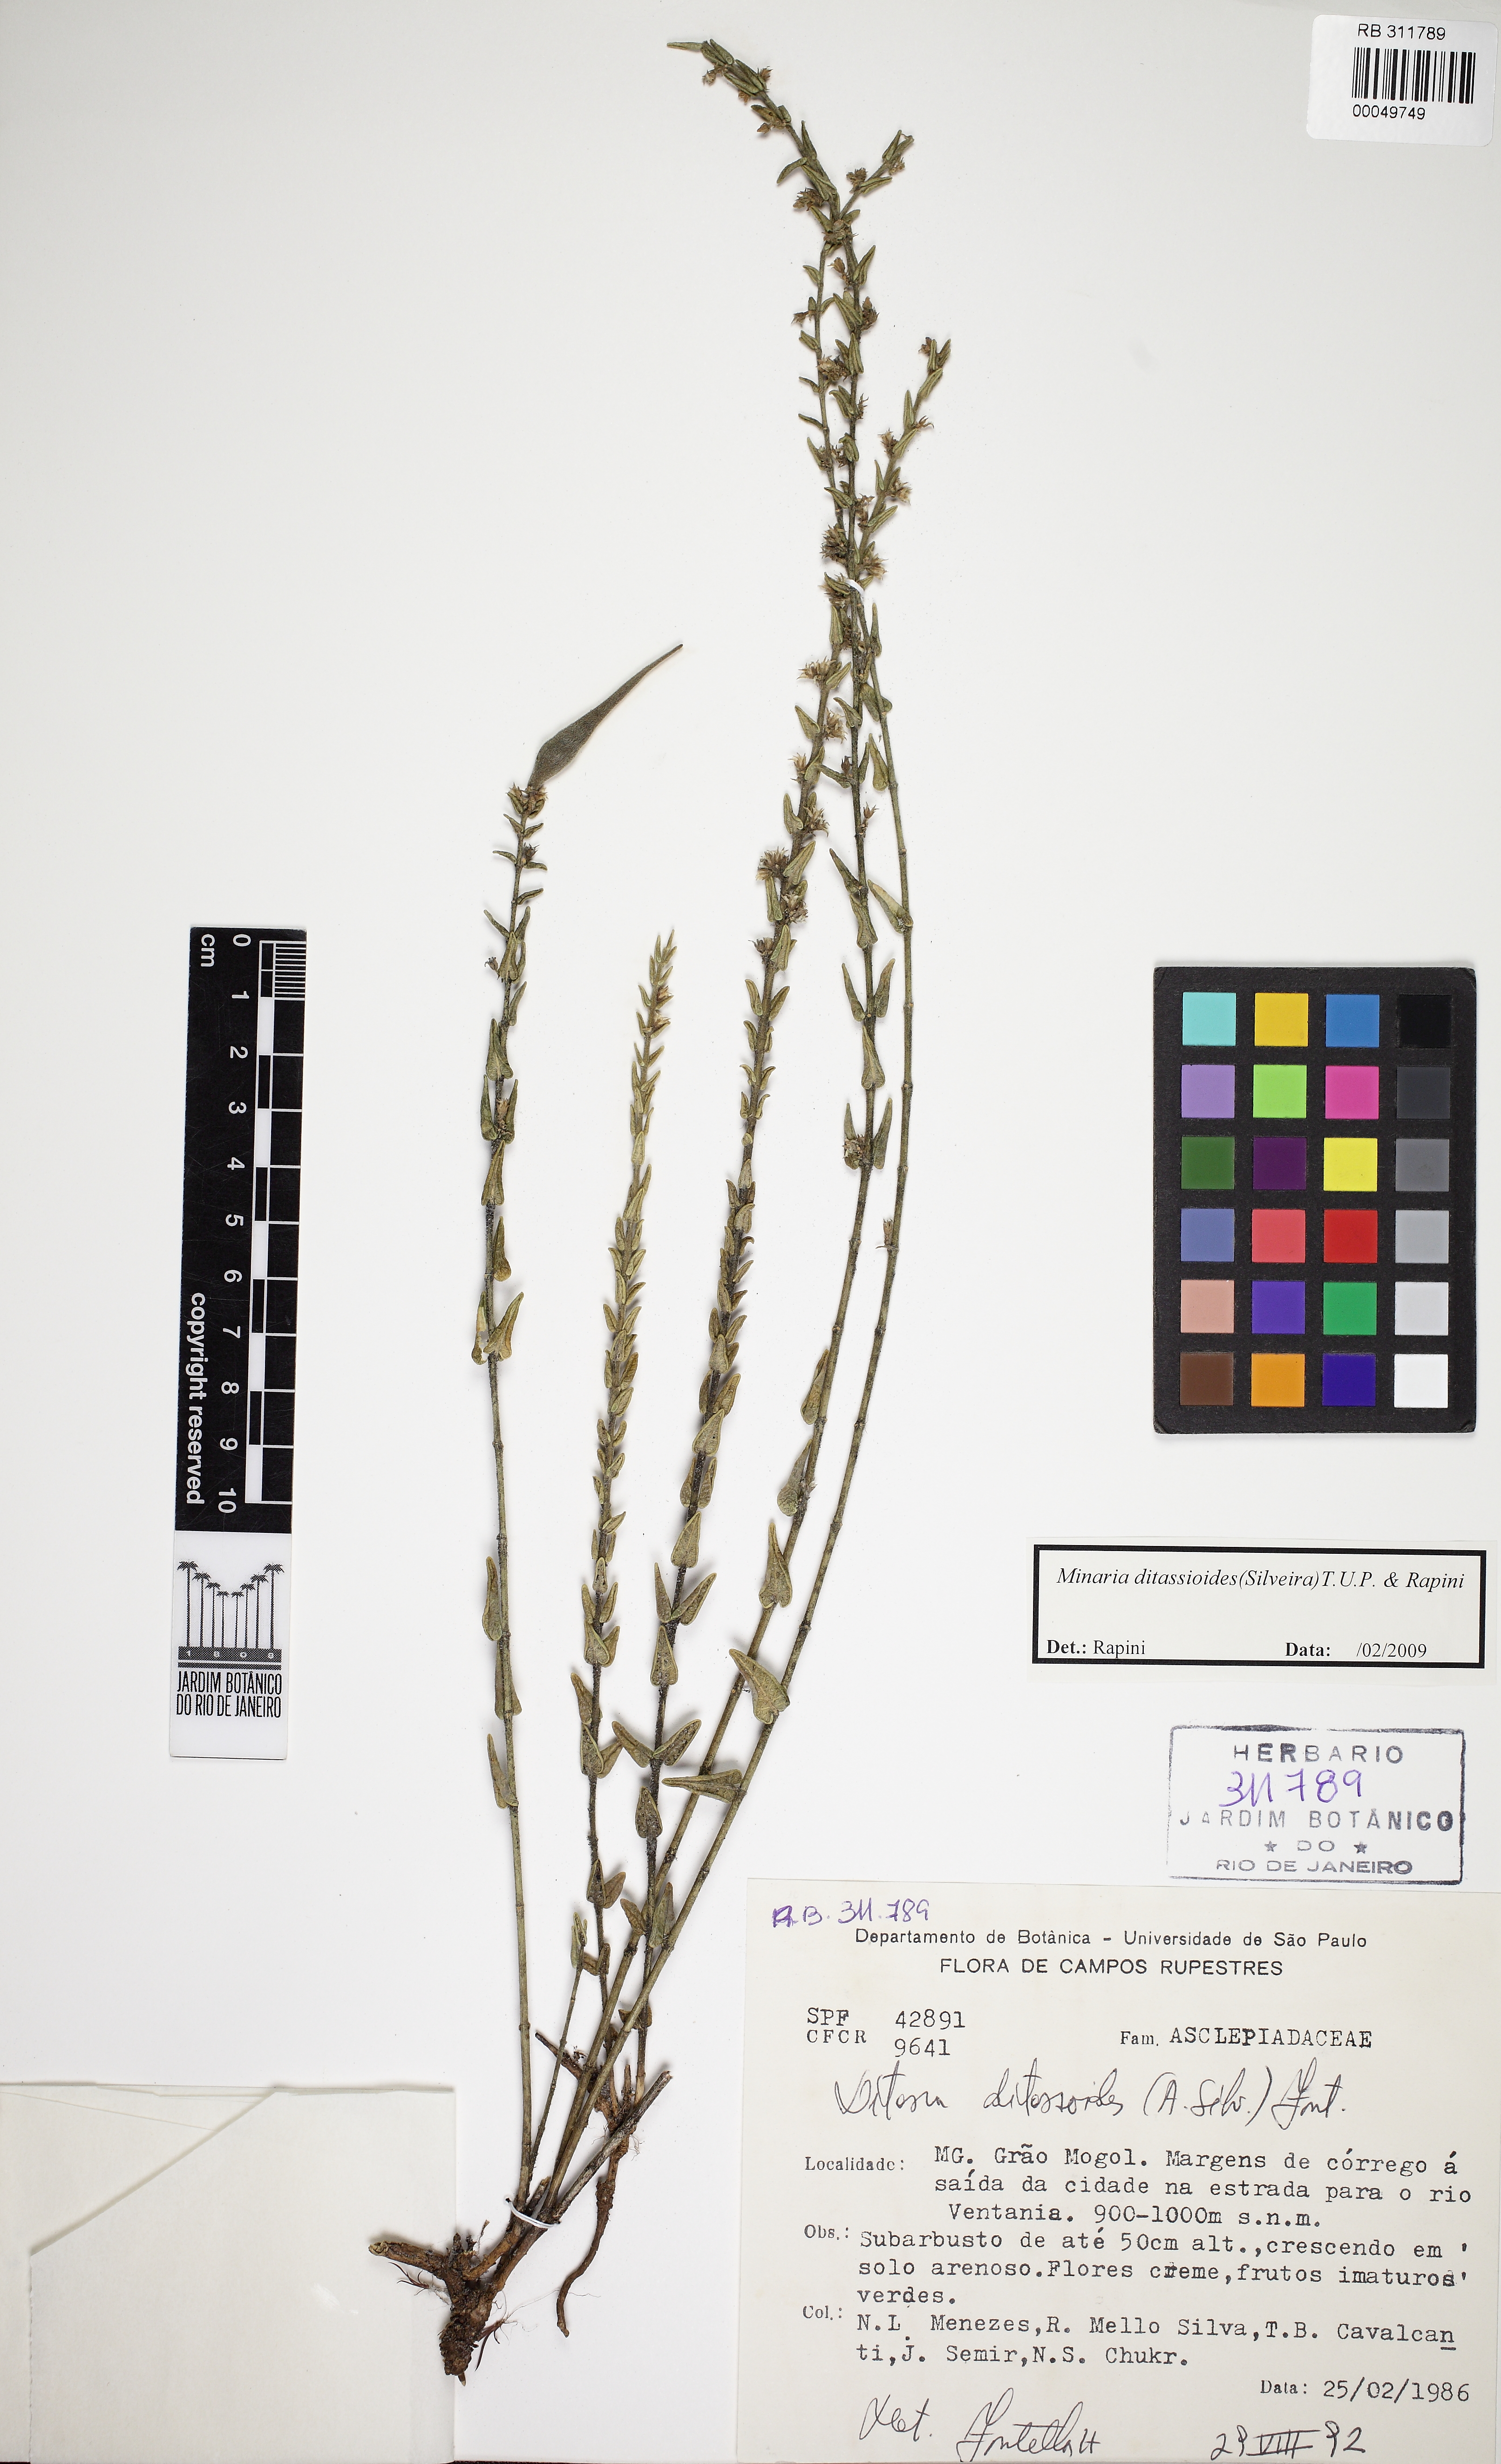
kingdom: Plantae
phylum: Tracheophyta
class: Magnoliopsida
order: Gentianales
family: Apocynaceae
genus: Minaria
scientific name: Minaria ditassoides
